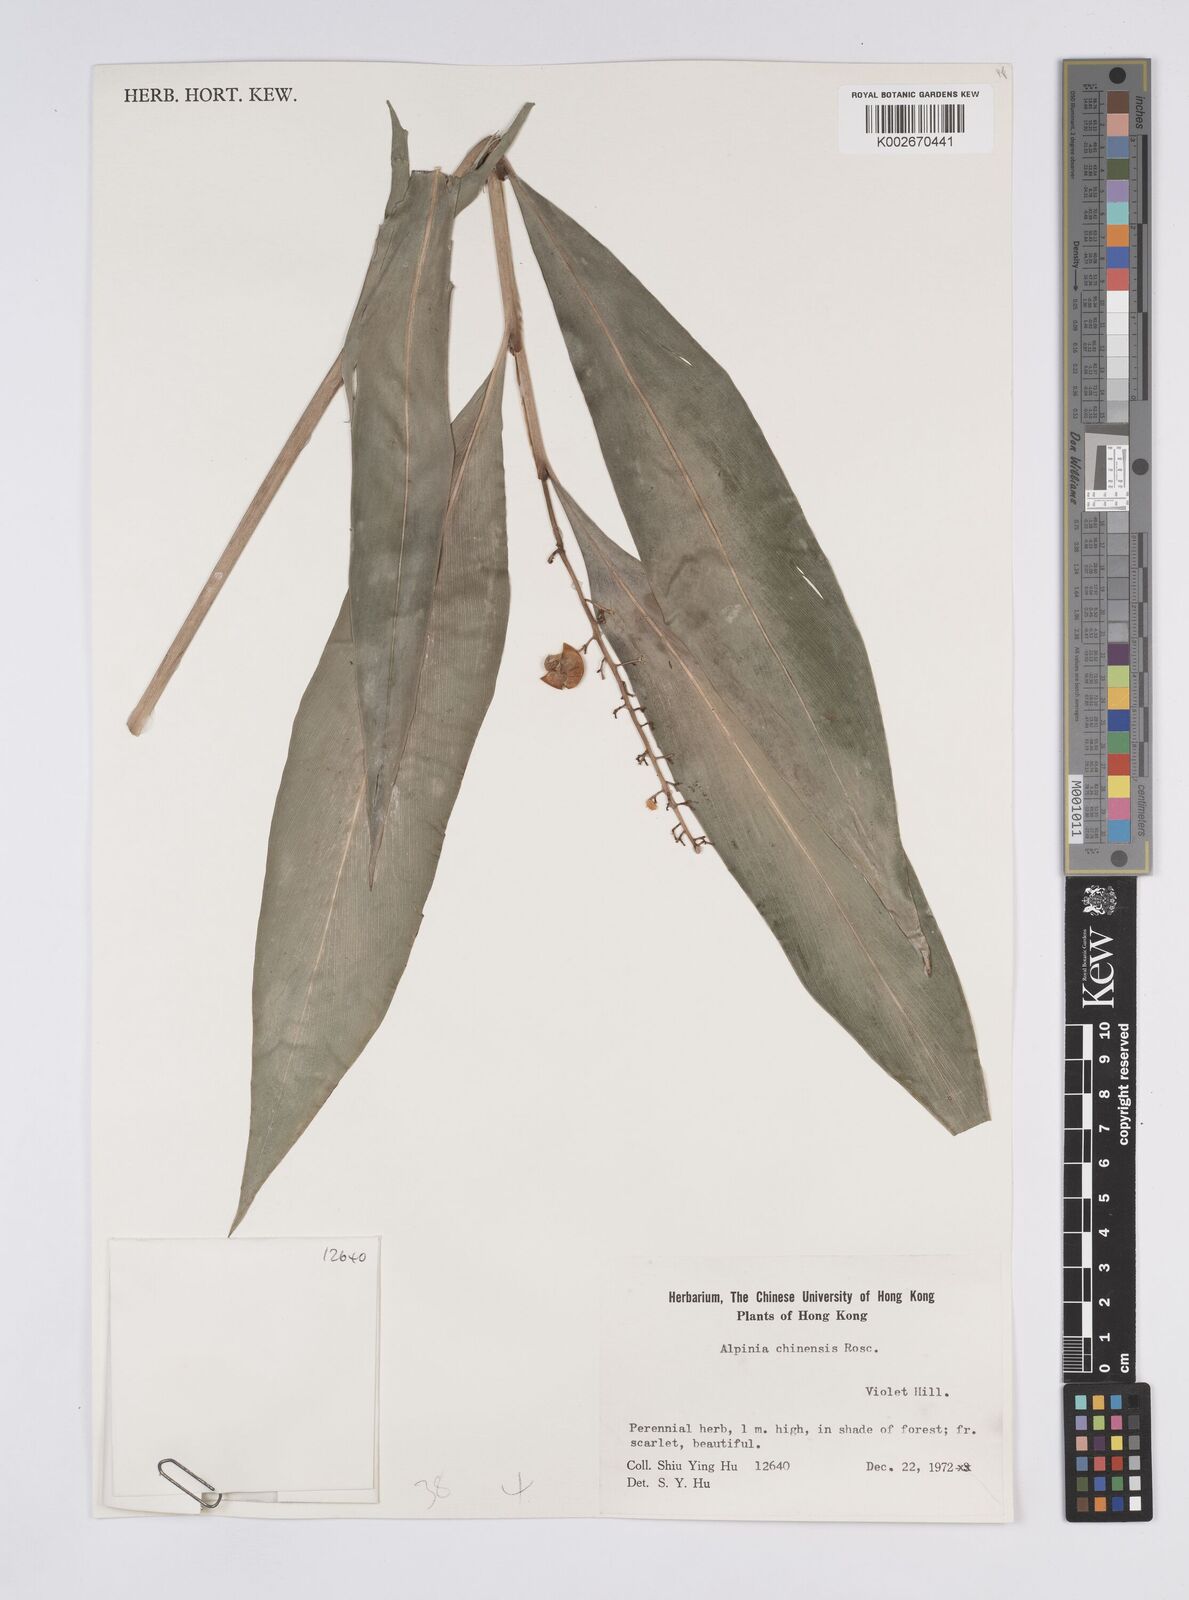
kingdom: Plantae
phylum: Tracheophyta
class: Liliopsida
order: Zingiberales
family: Zingiberaceae
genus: Alpinia
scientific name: Alpinia chinensis
